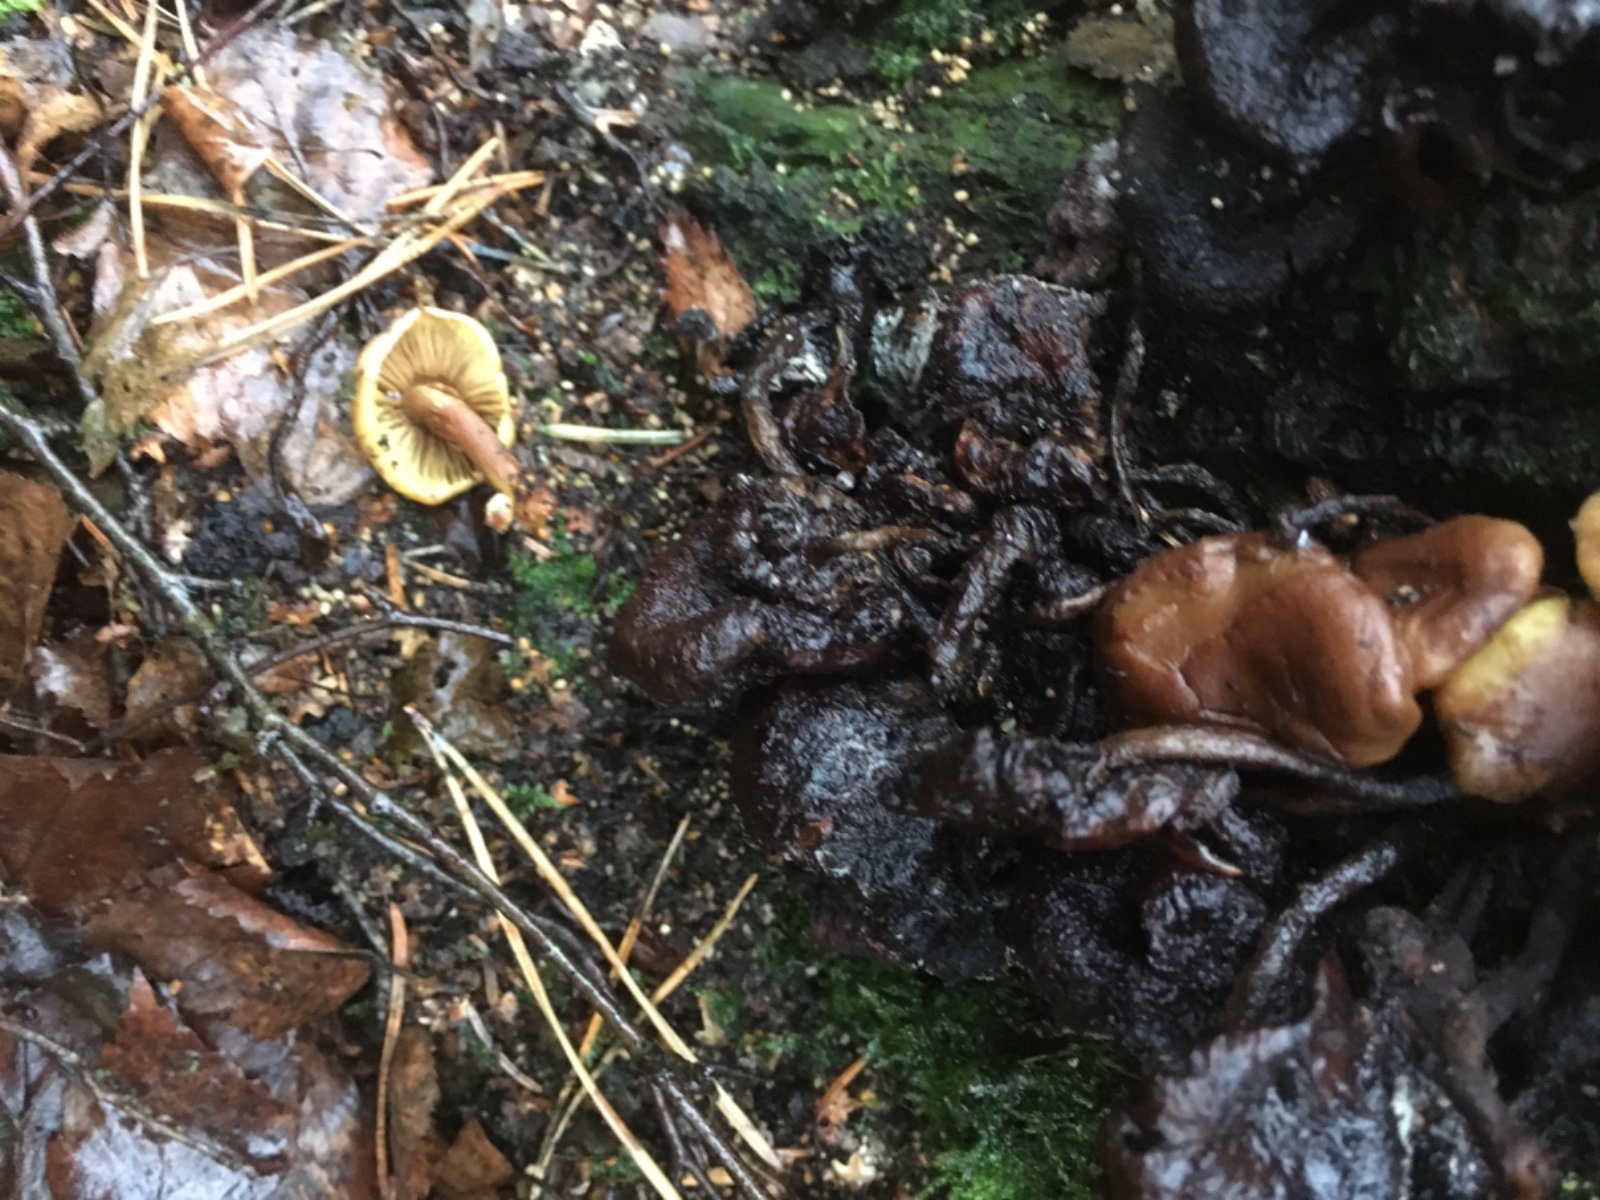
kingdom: Fungi
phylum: Basidiomycota
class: Agaricomycetes
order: Agaricales
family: Strophariaceae
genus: Hypholoma
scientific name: Hypholoma fasciculare
